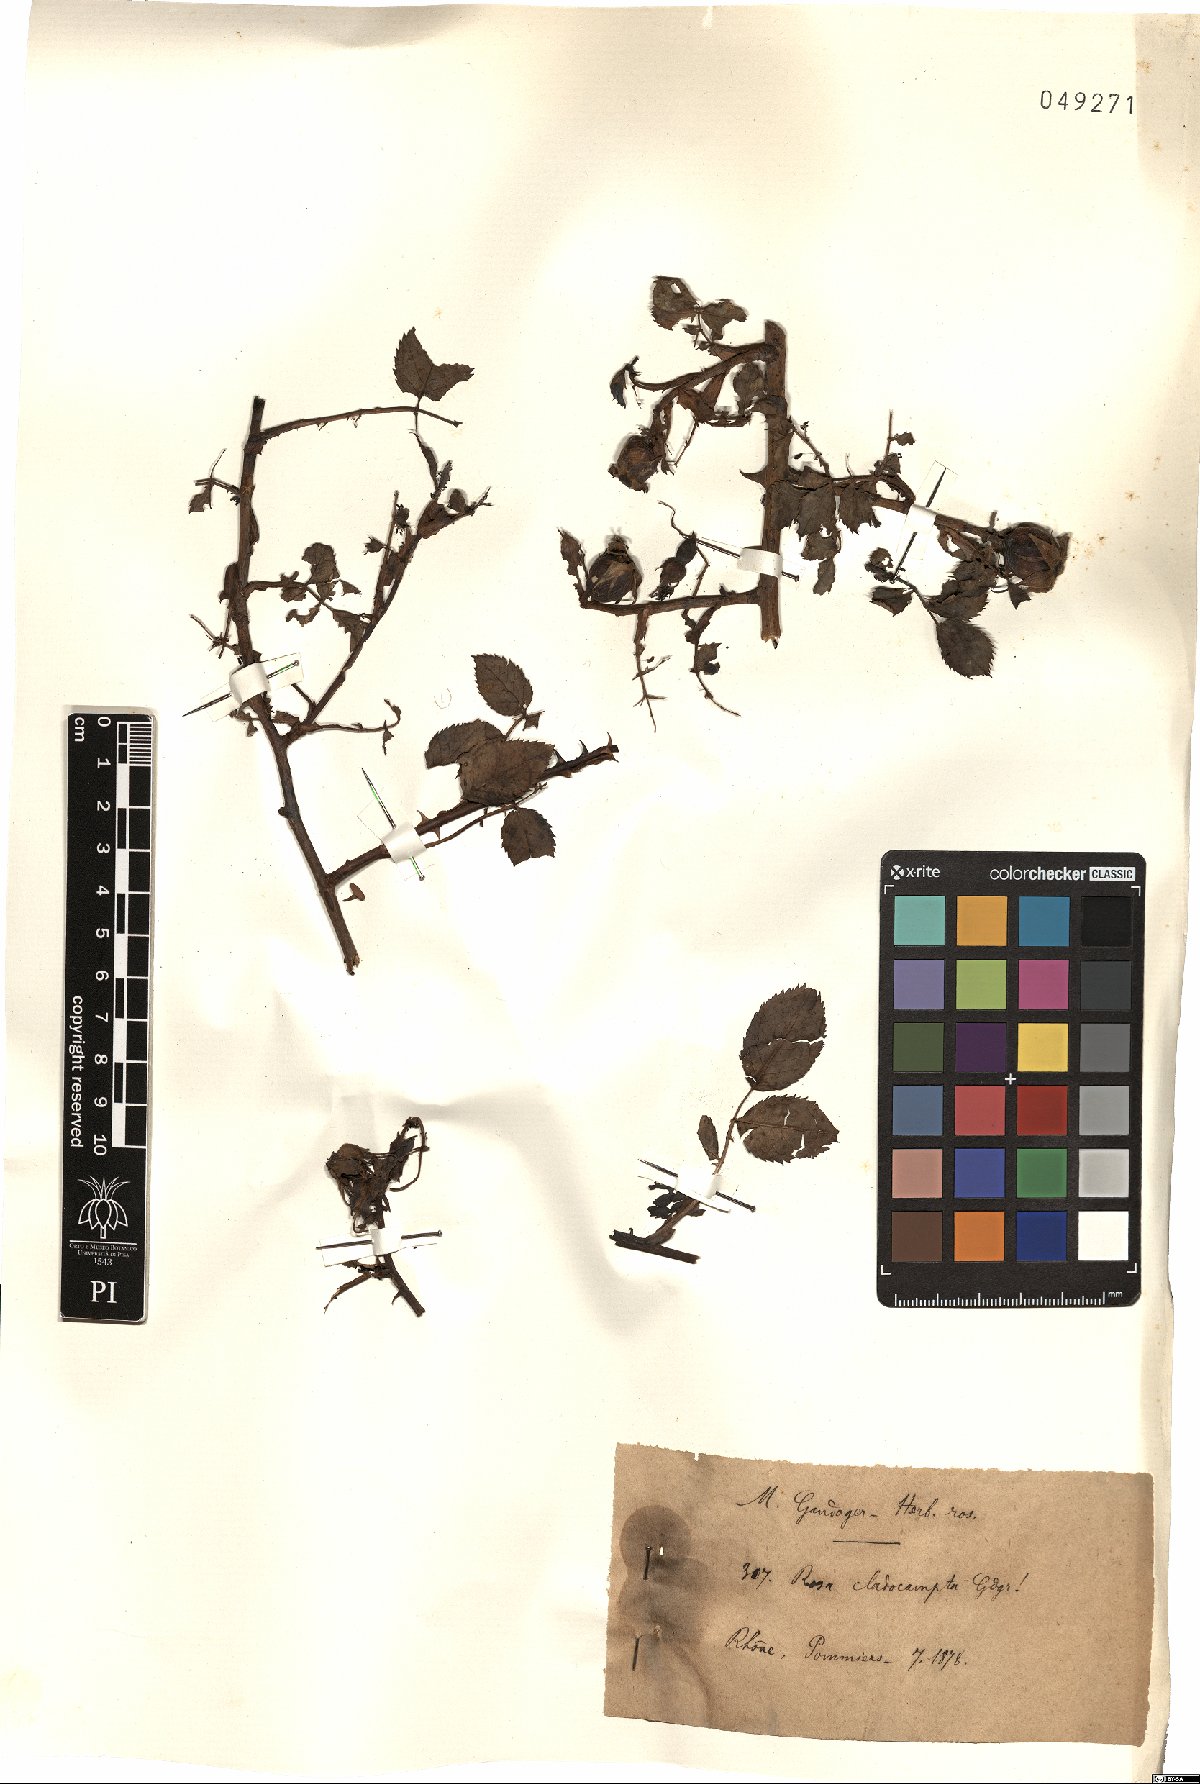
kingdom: Plantae
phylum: Tracheophyta
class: Magnoliopsida
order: Rosales
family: Rosaceae
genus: Rosa
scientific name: Rosa cladocampta
